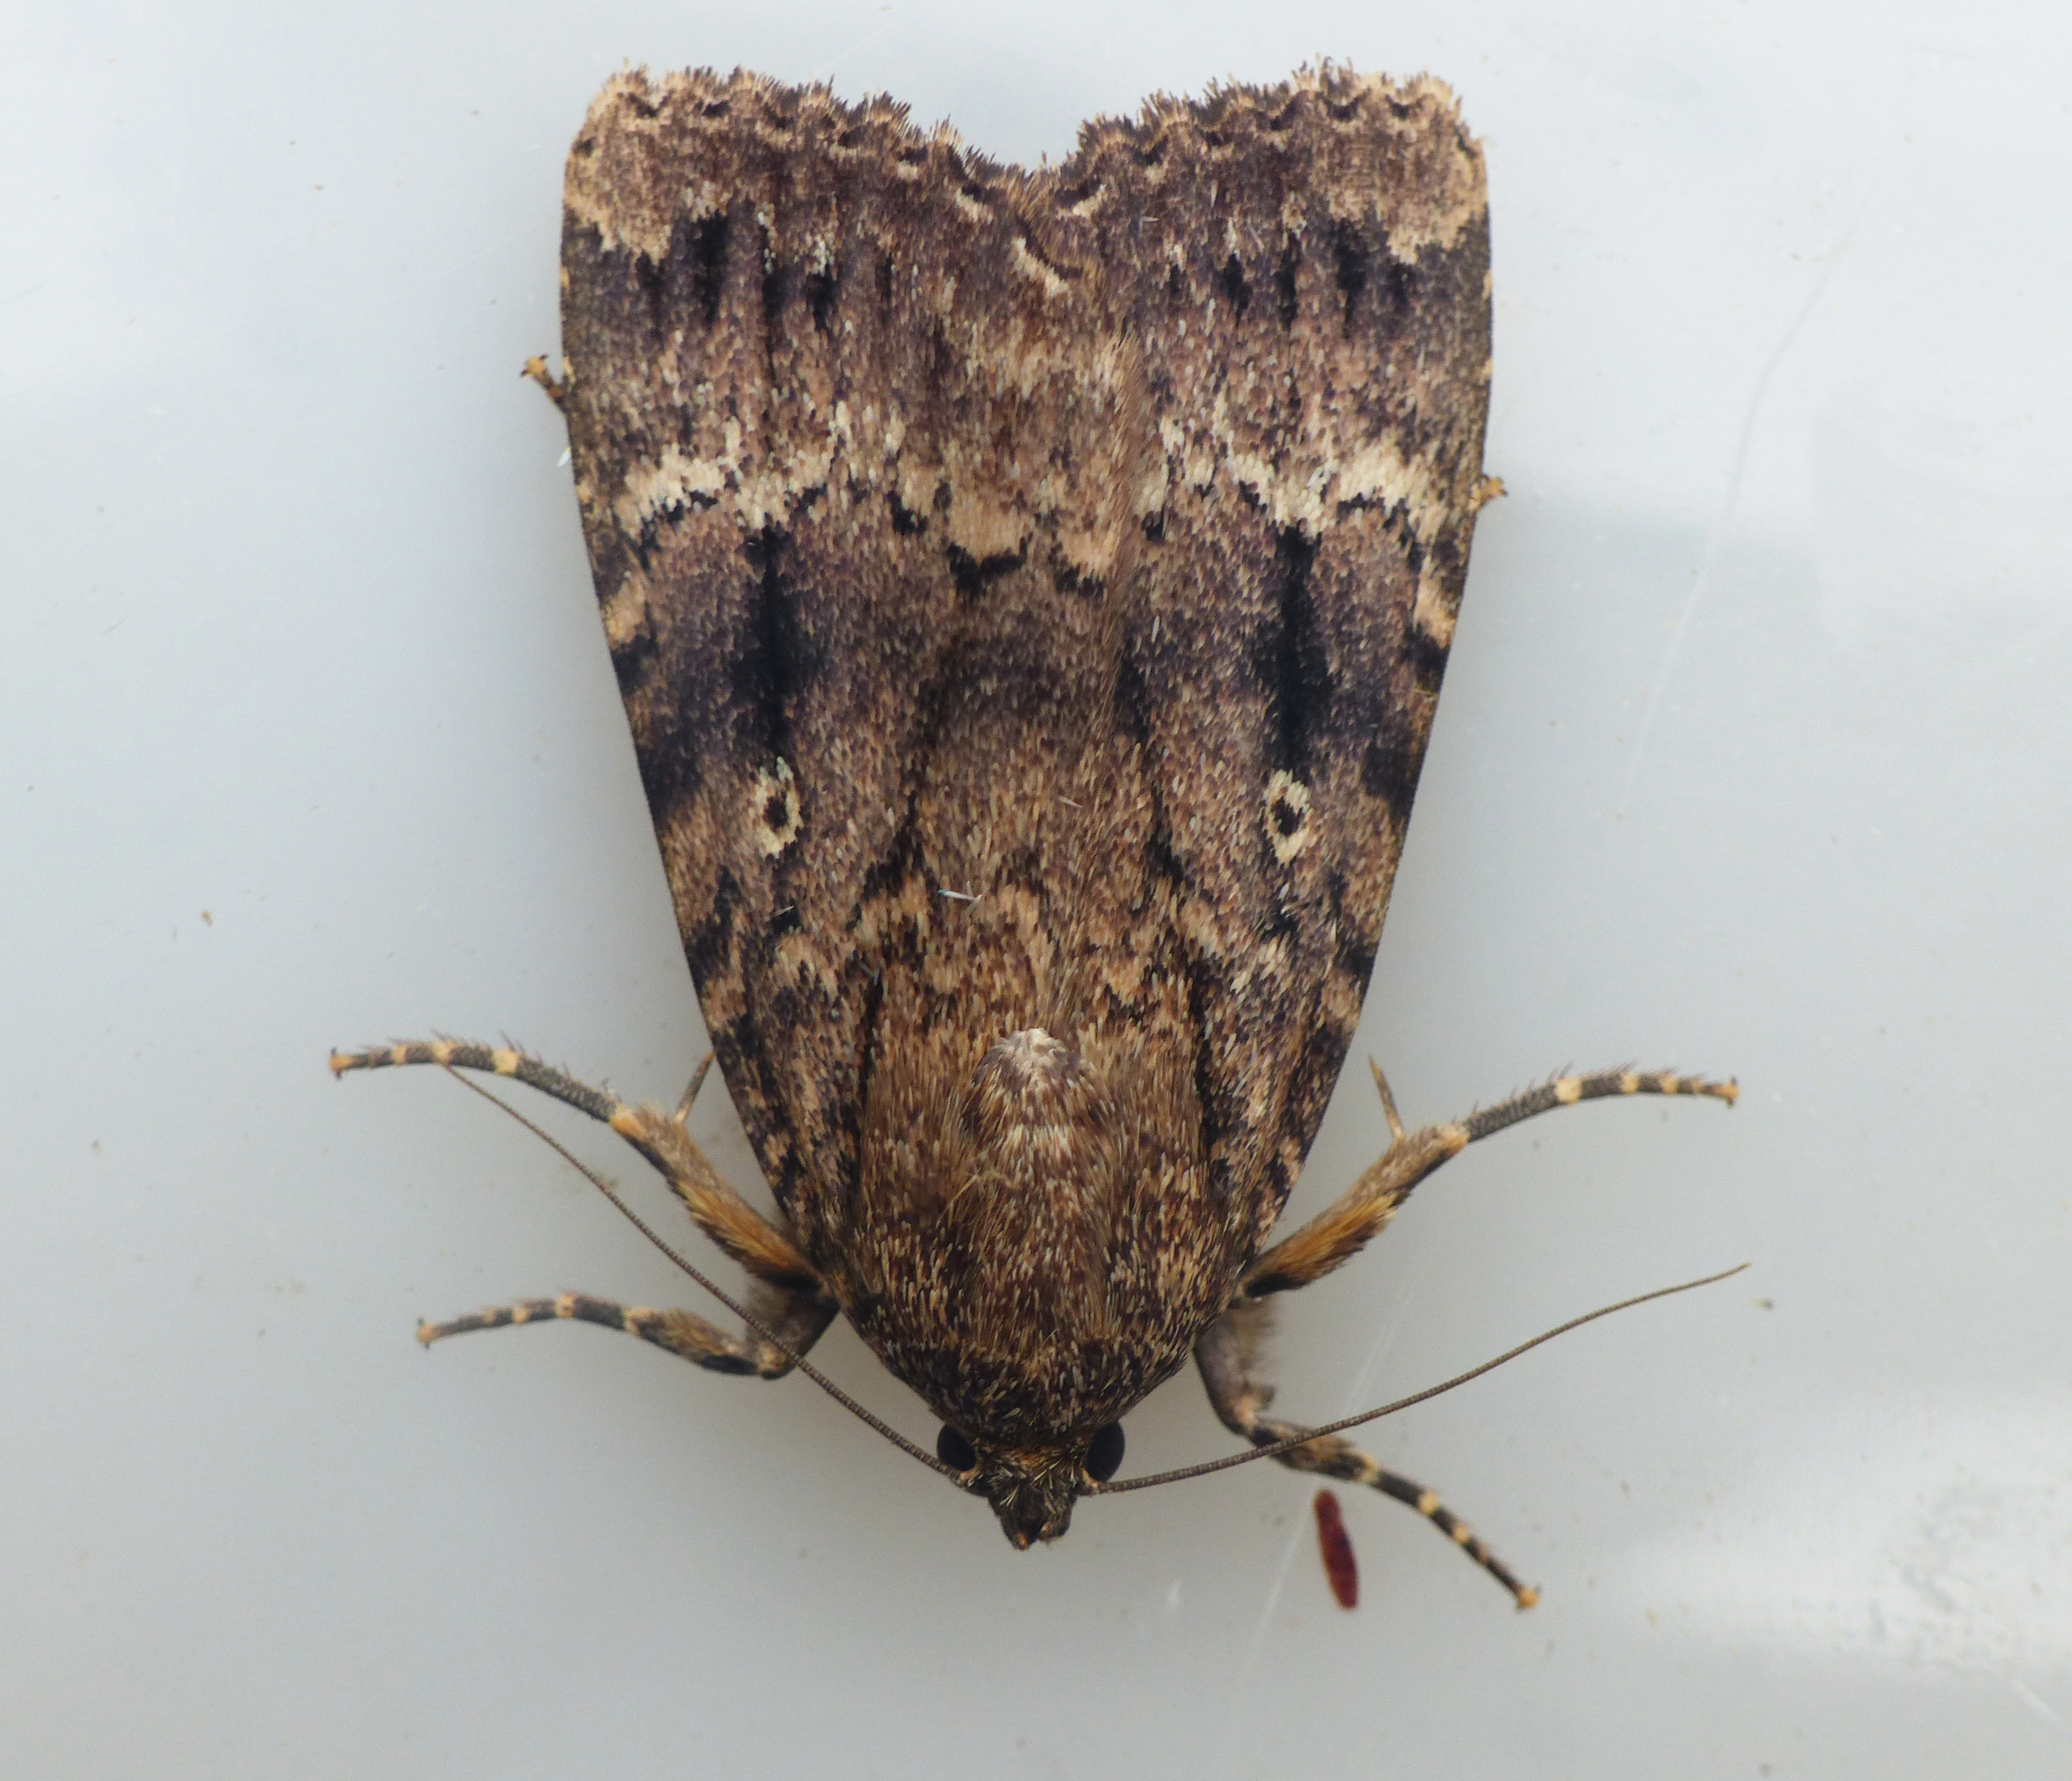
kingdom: Animalia
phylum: Arthropoda
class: Insecta
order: Lepidoptera
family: Noctuidae
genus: Amphipyra
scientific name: Amphipyra pyramidea
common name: Pyramideugle
